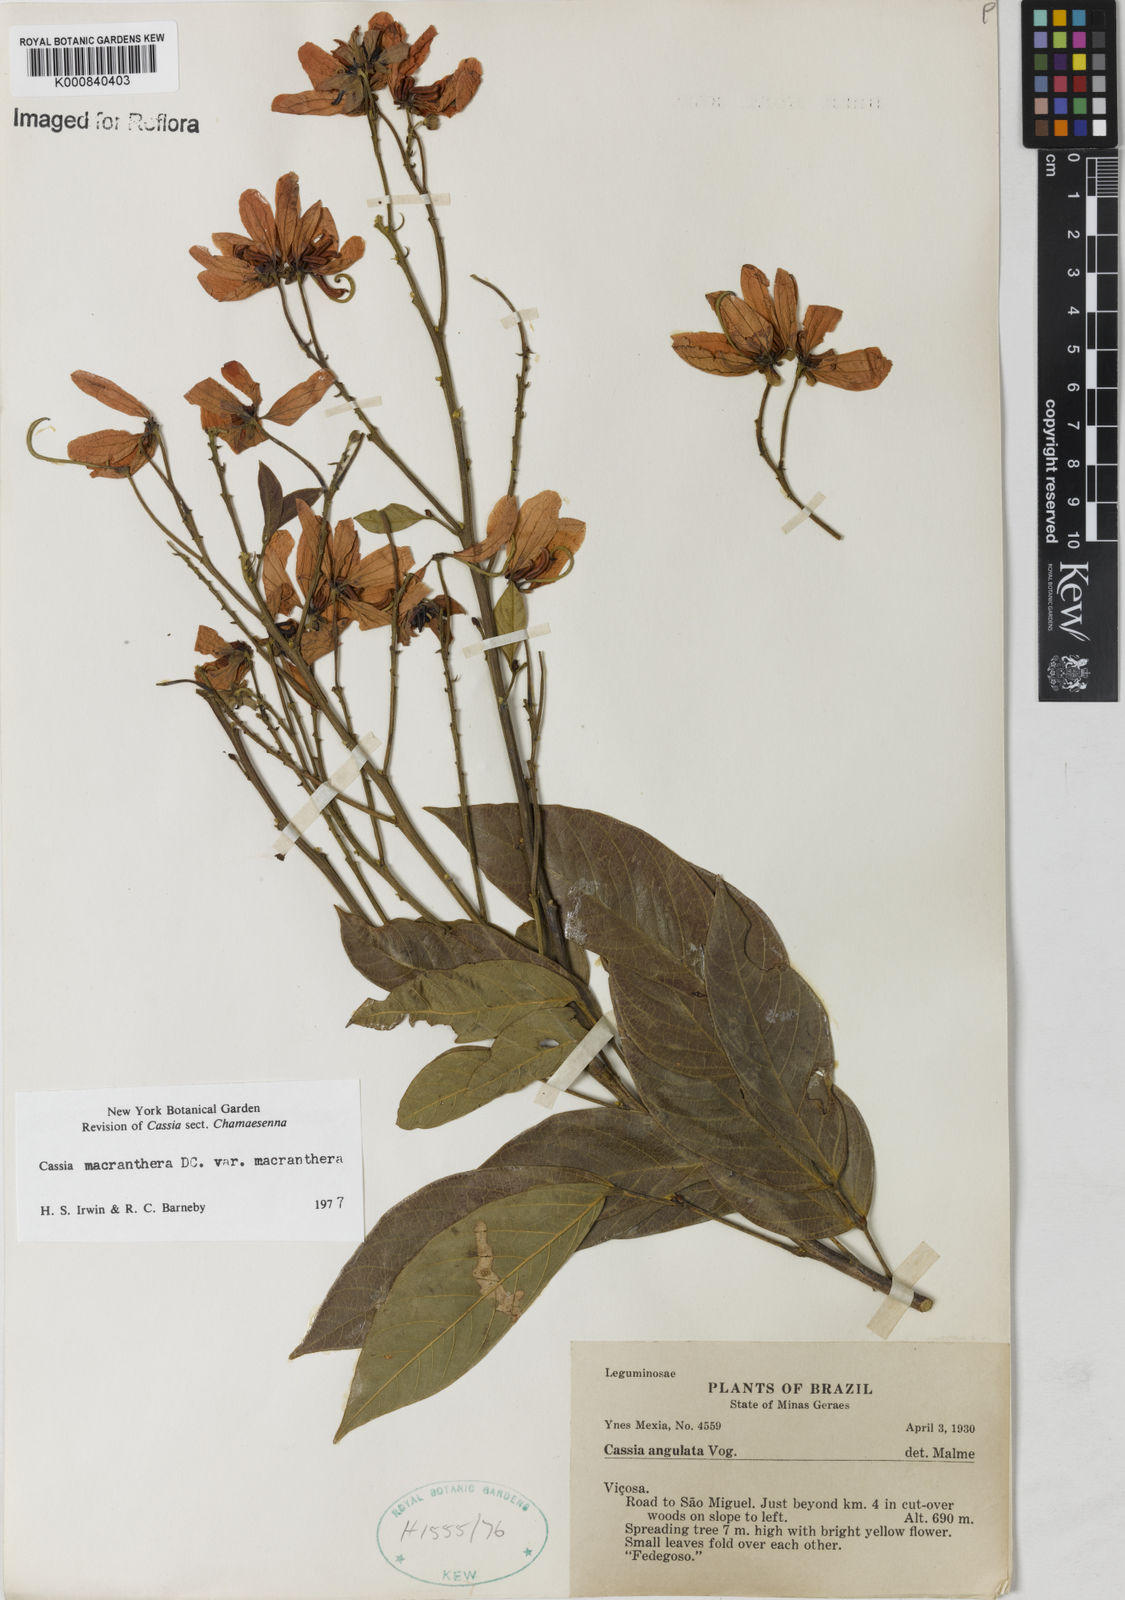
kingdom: Plantae
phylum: Tracheophyta
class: Magnoliopsida
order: Fabales
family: Fabaceae
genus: Senna
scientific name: Senna macranthera
